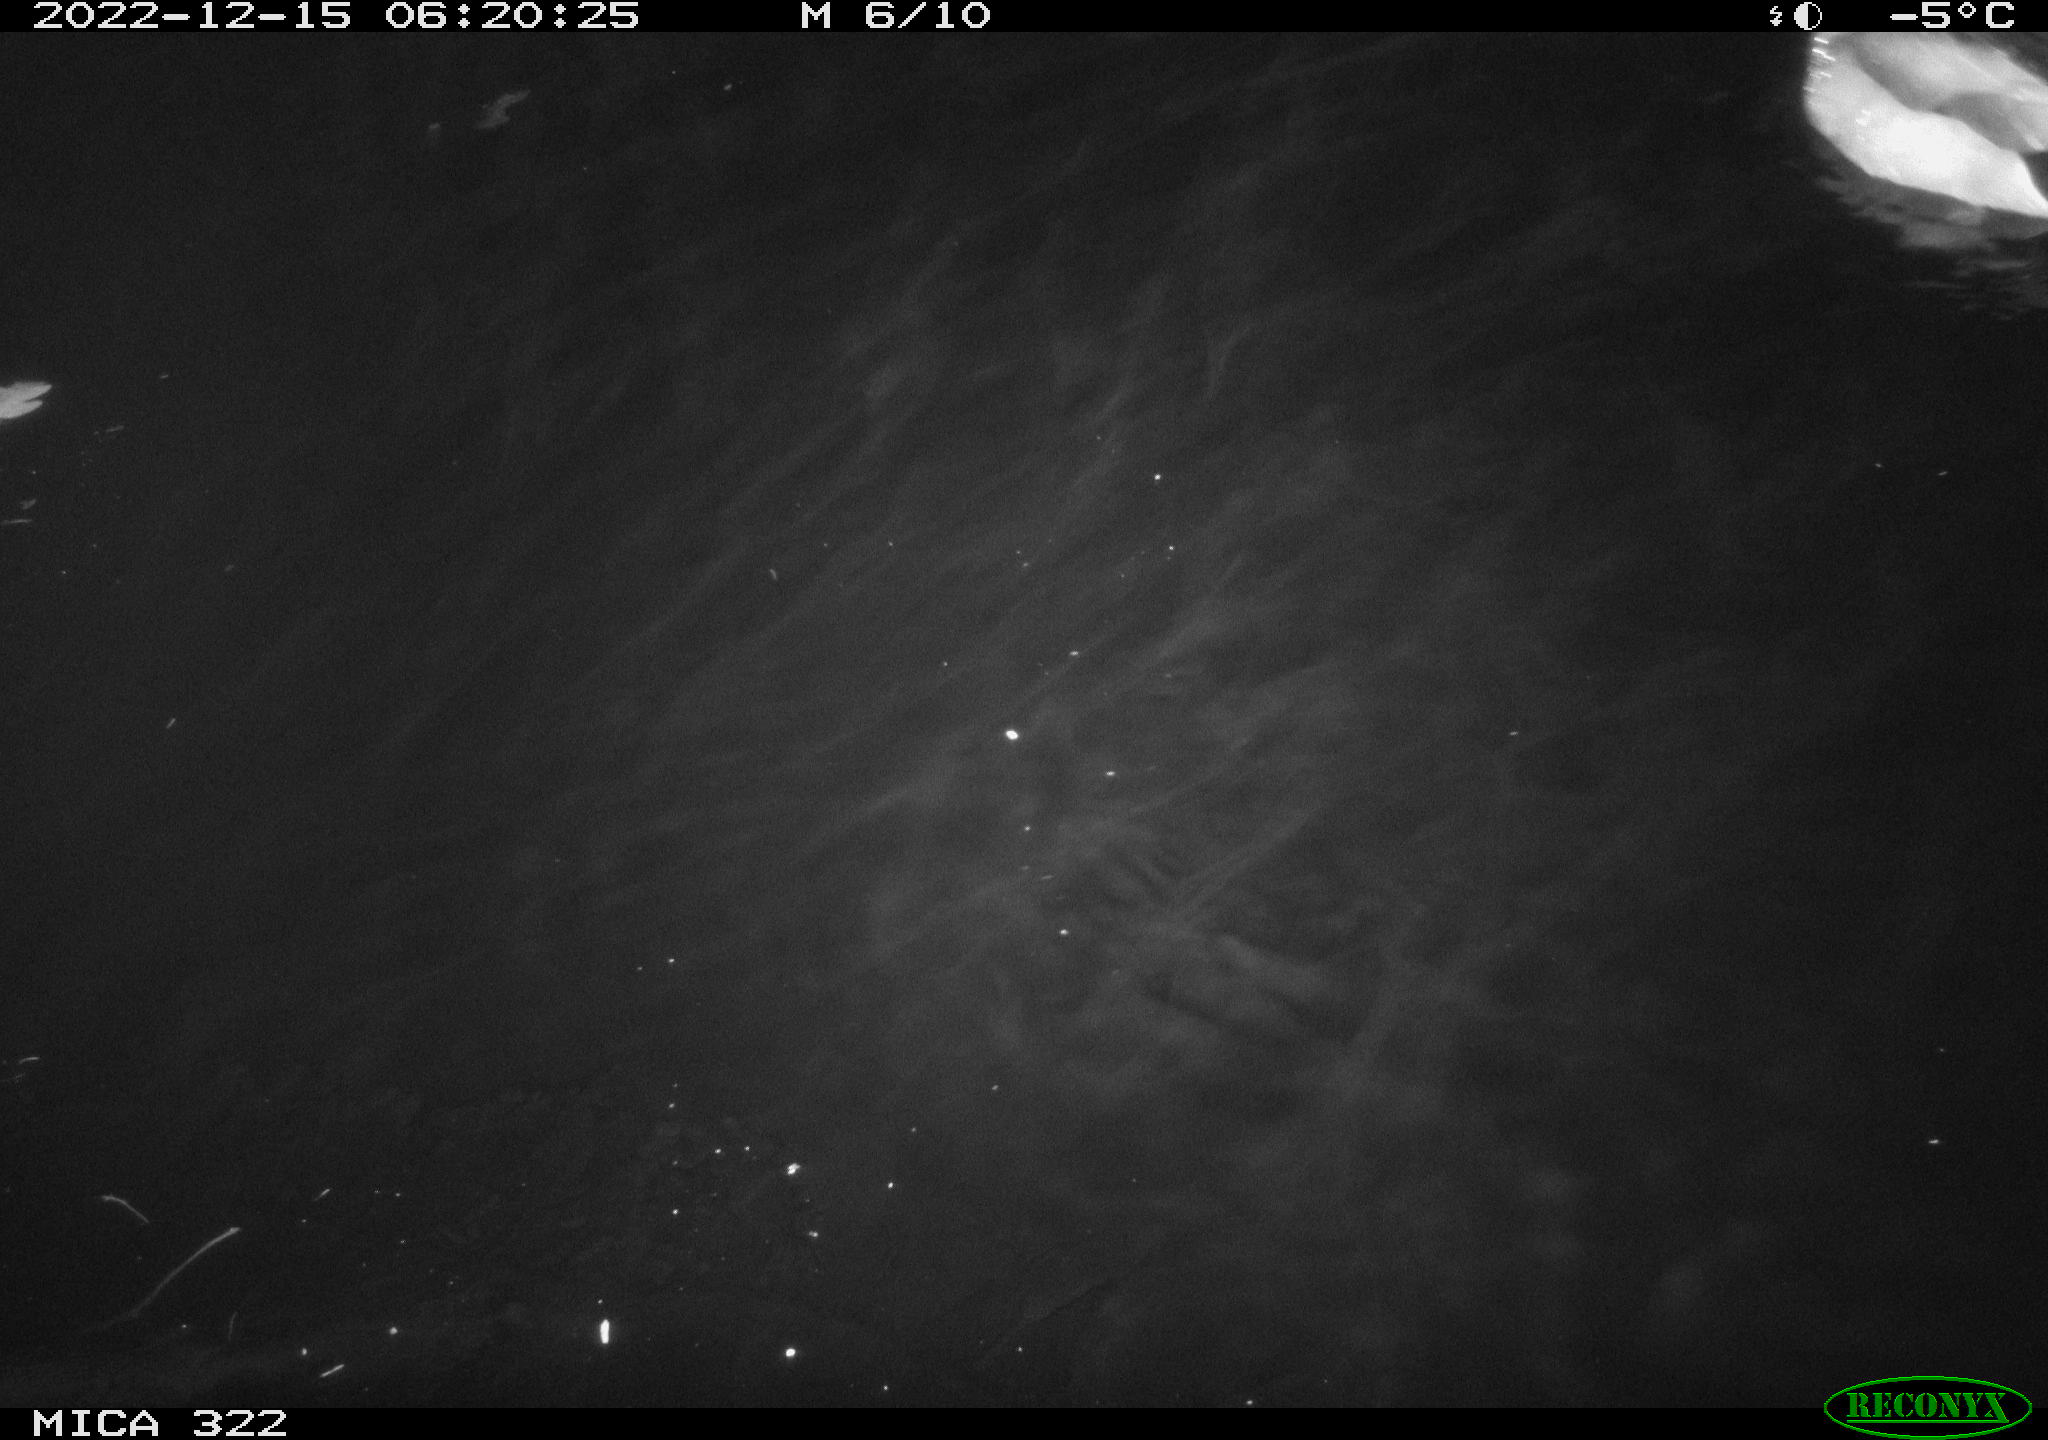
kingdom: Animalia
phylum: Chordata
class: Aves
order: Anseriformes
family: Anatidae
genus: Anas
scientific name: Anas
